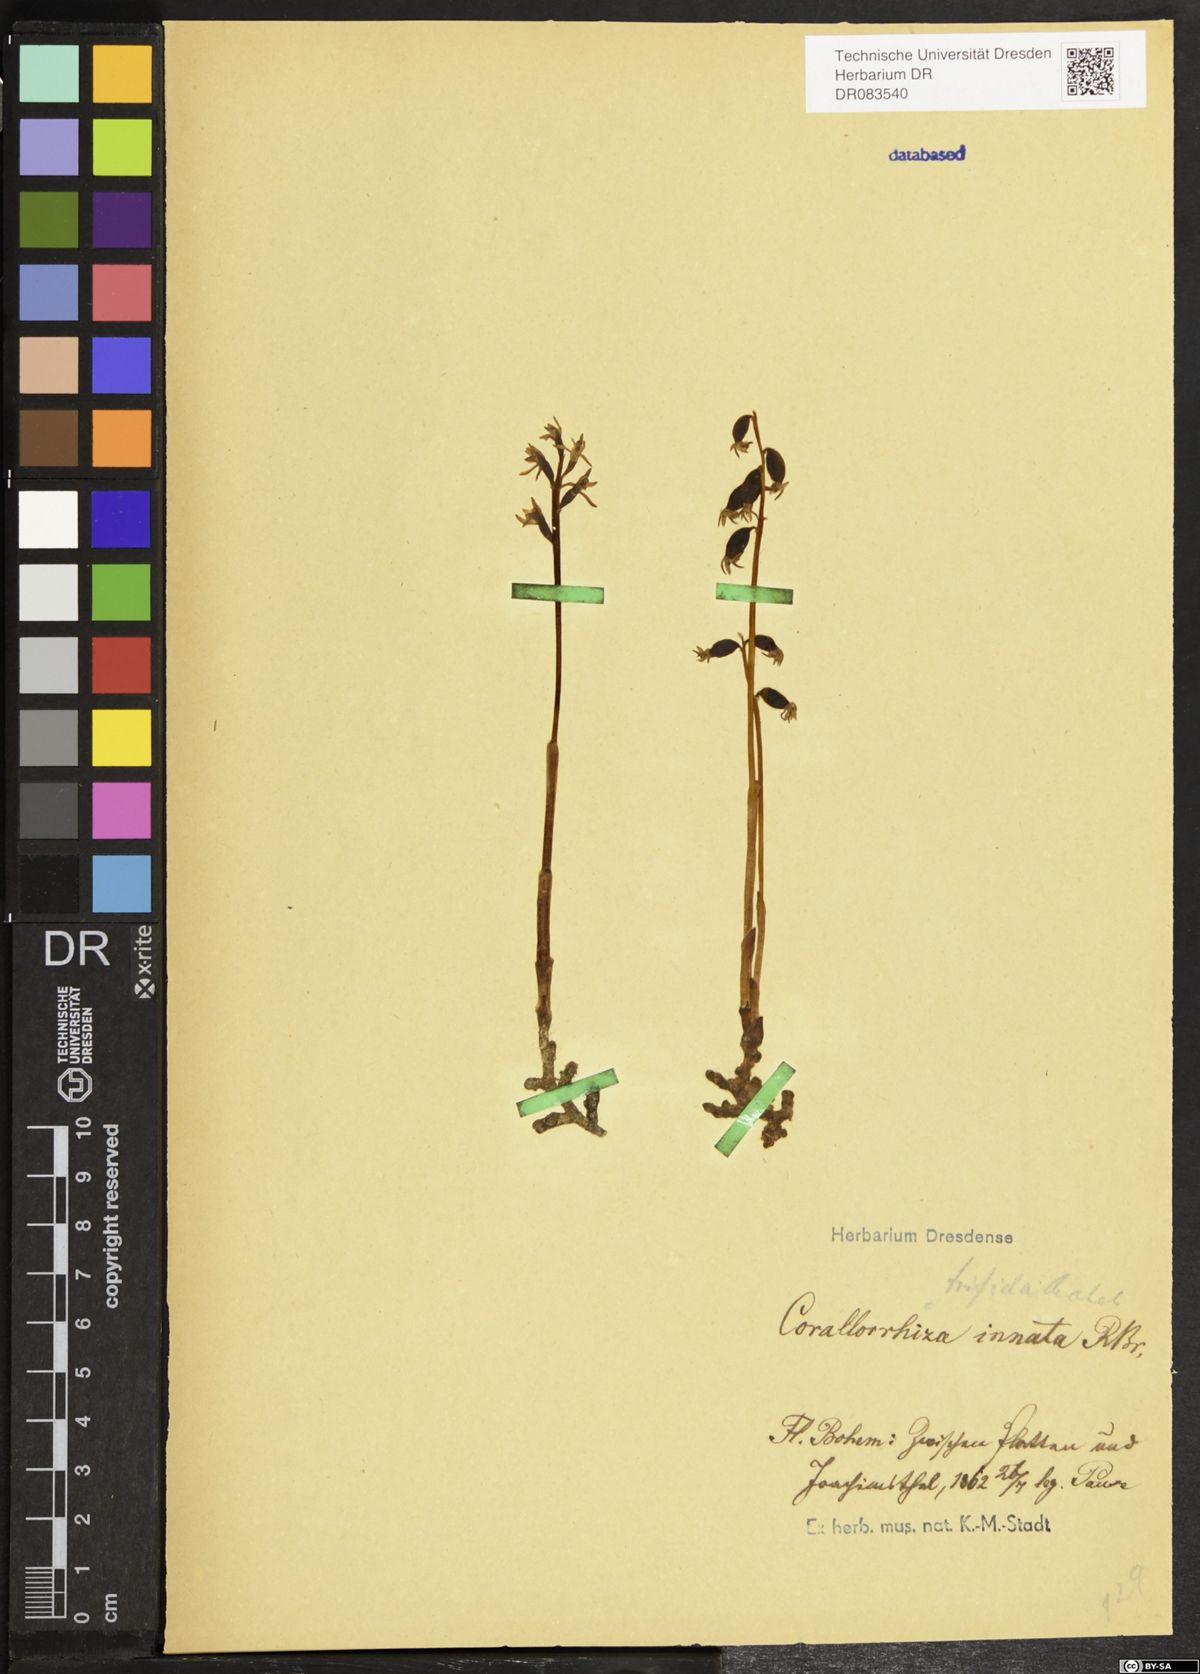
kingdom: Plantae
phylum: Tracheophyta
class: Liliopsida
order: Asparagales
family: Orchidaceae
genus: Corallorhiza
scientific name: Corallorhiza trifida
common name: Yellow coralroot
